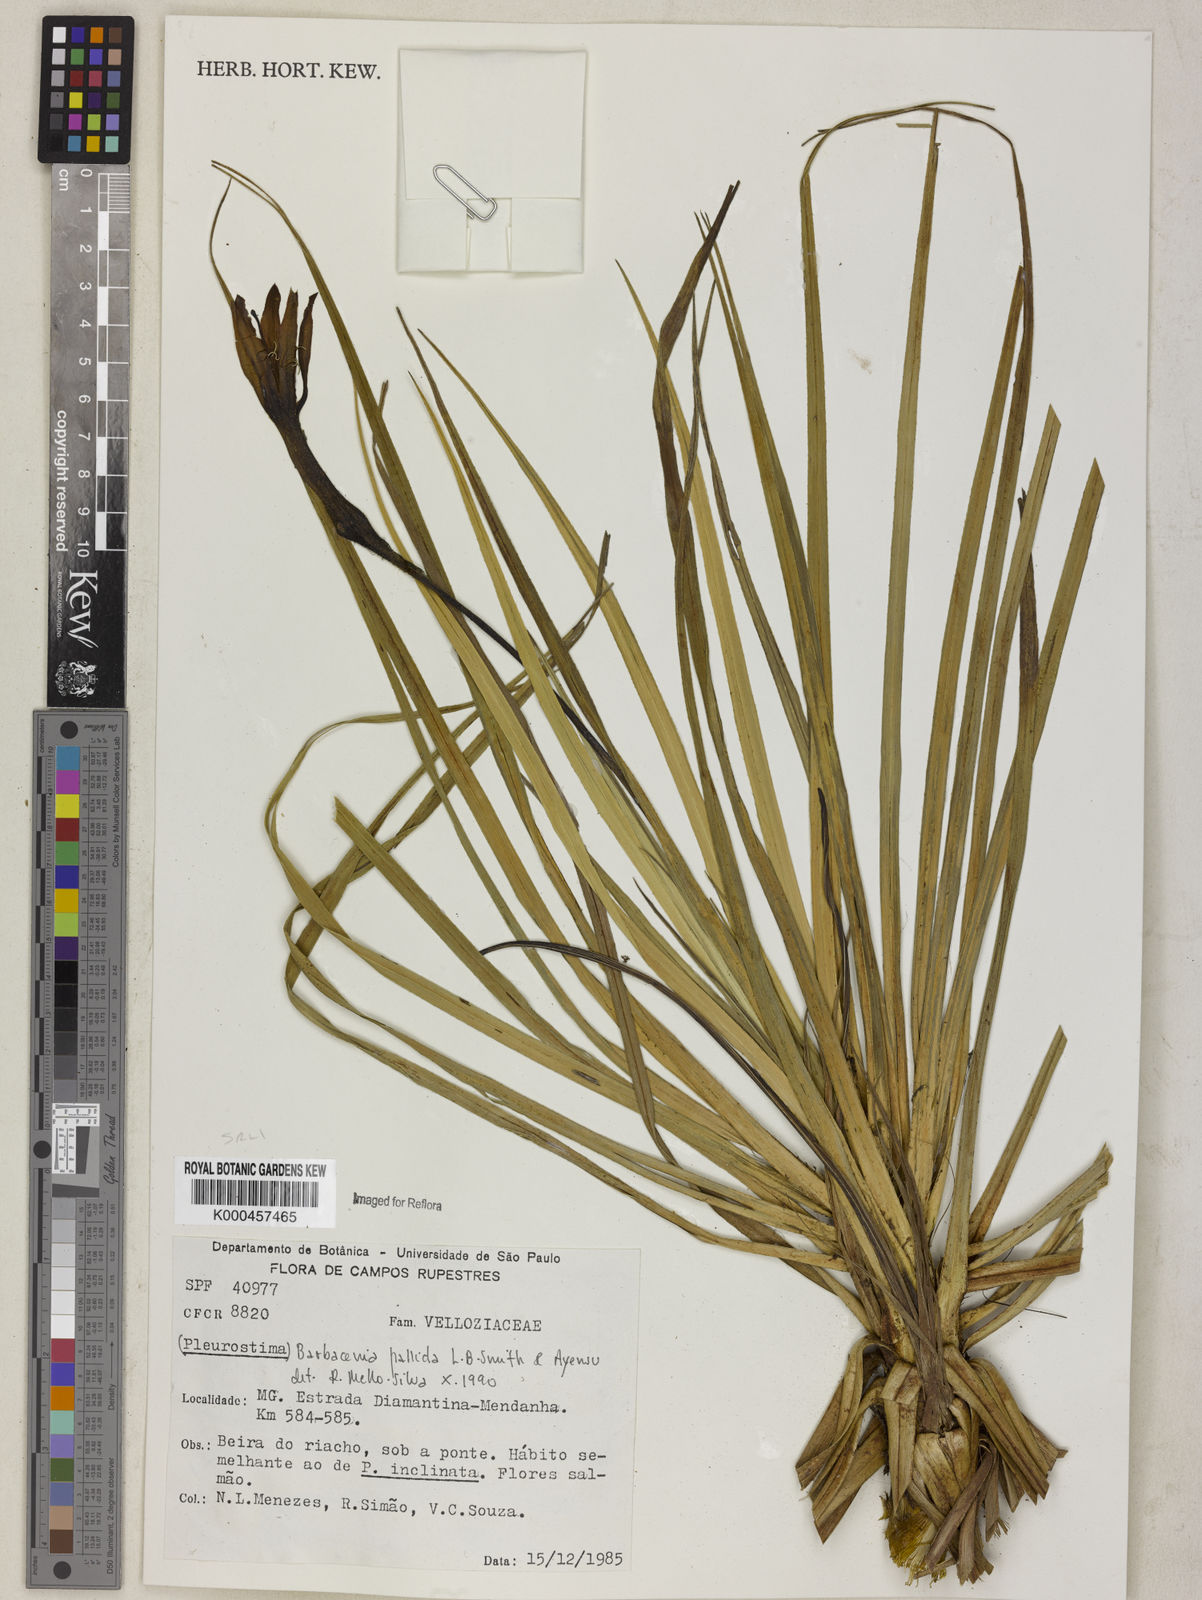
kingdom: Plantae
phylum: Tracheophyta
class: Liliopsida
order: Pandanales
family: Velloziaceae
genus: Barbacenia
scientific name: Barbacenia pallida
